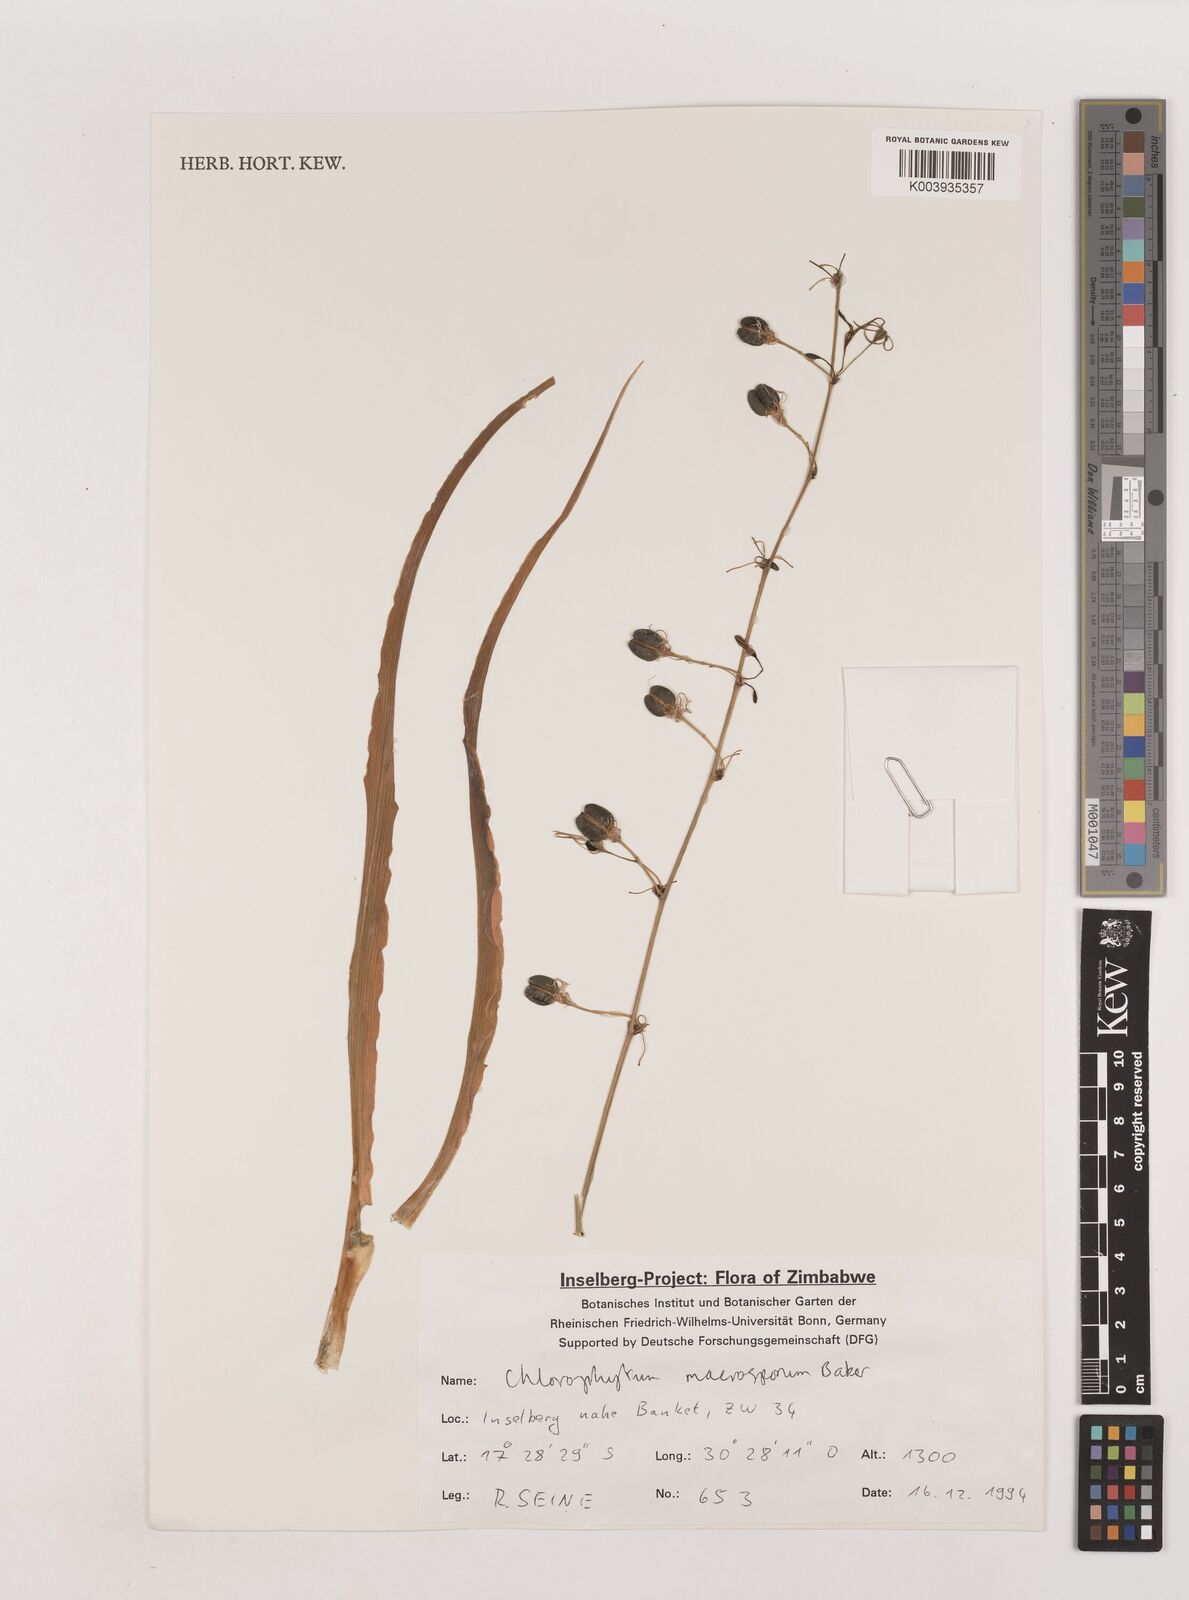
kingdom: Plantae
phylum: Tracheophyta
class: Liliopsida
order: Asparagales
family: Asparagaceae
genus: Chlorophytum
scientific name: Chlorophytum macrosporum
